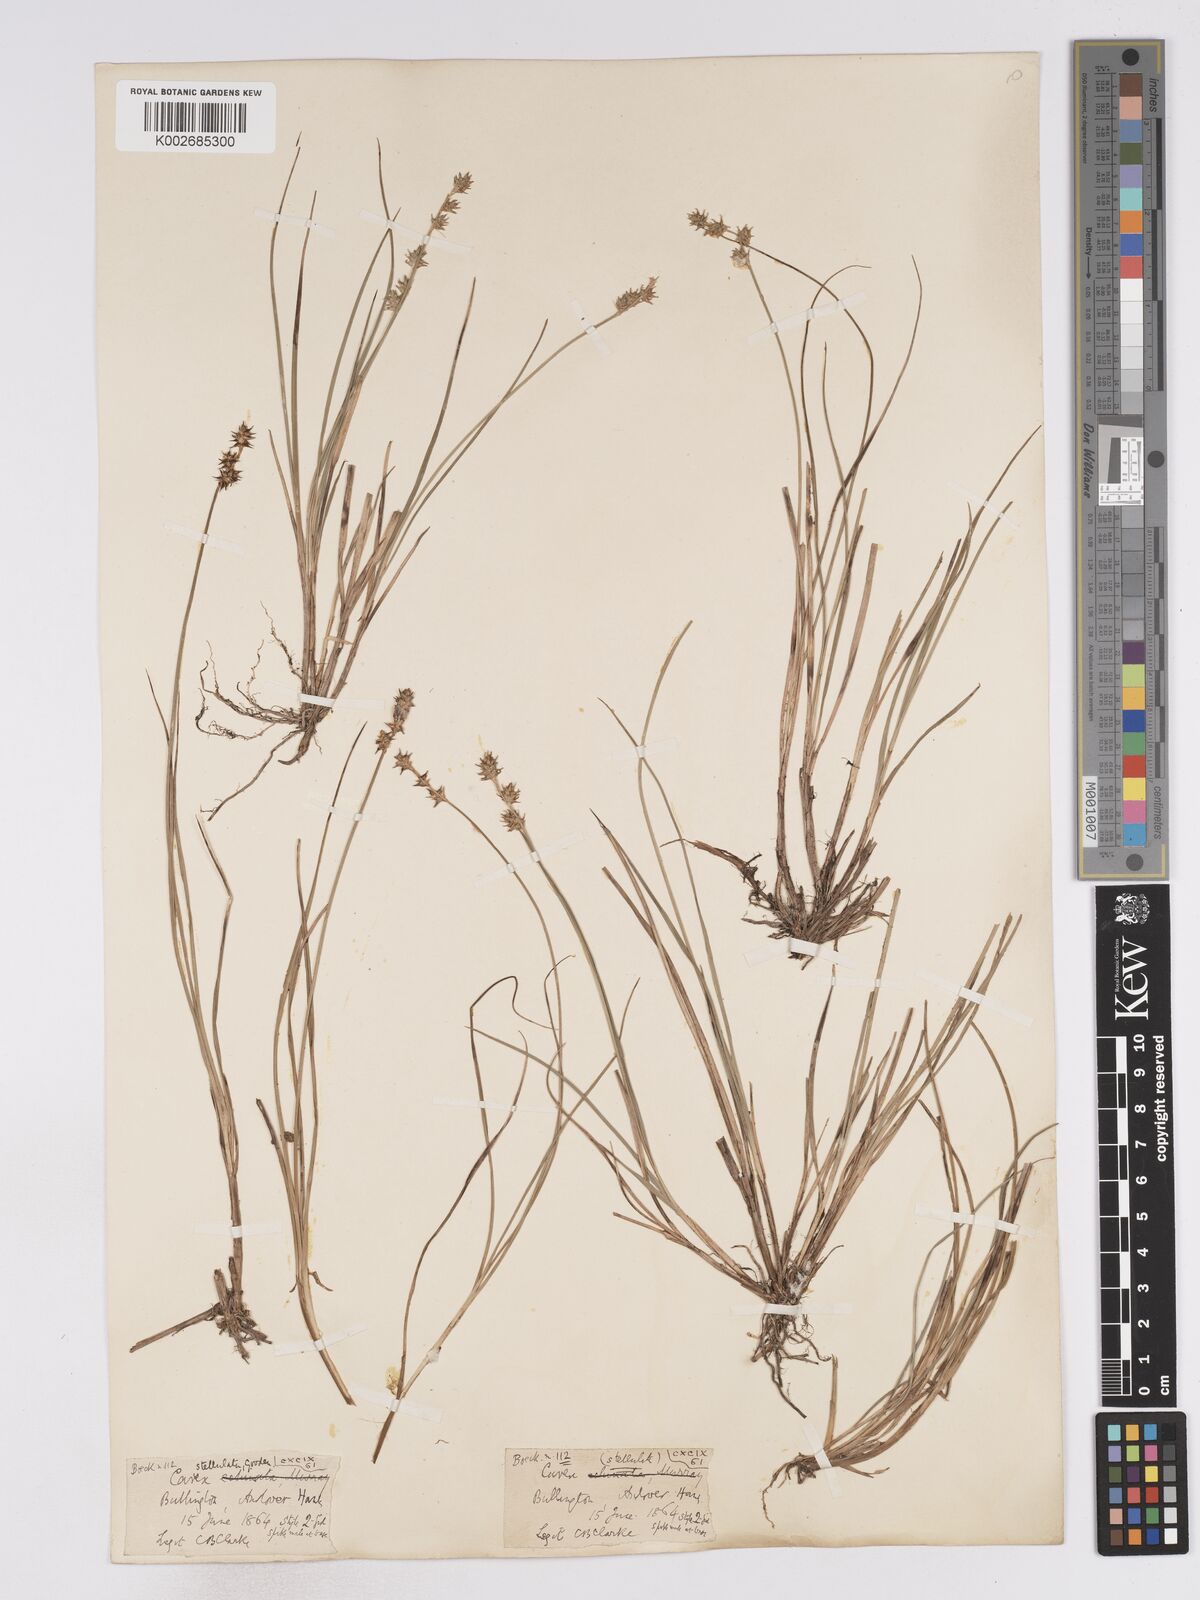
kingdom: Plantae
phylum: Tracheophyta
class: Liliopsida
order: Poales
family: Cyperaceae
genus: Carex
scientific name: Carex echinata
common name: Star sedge
